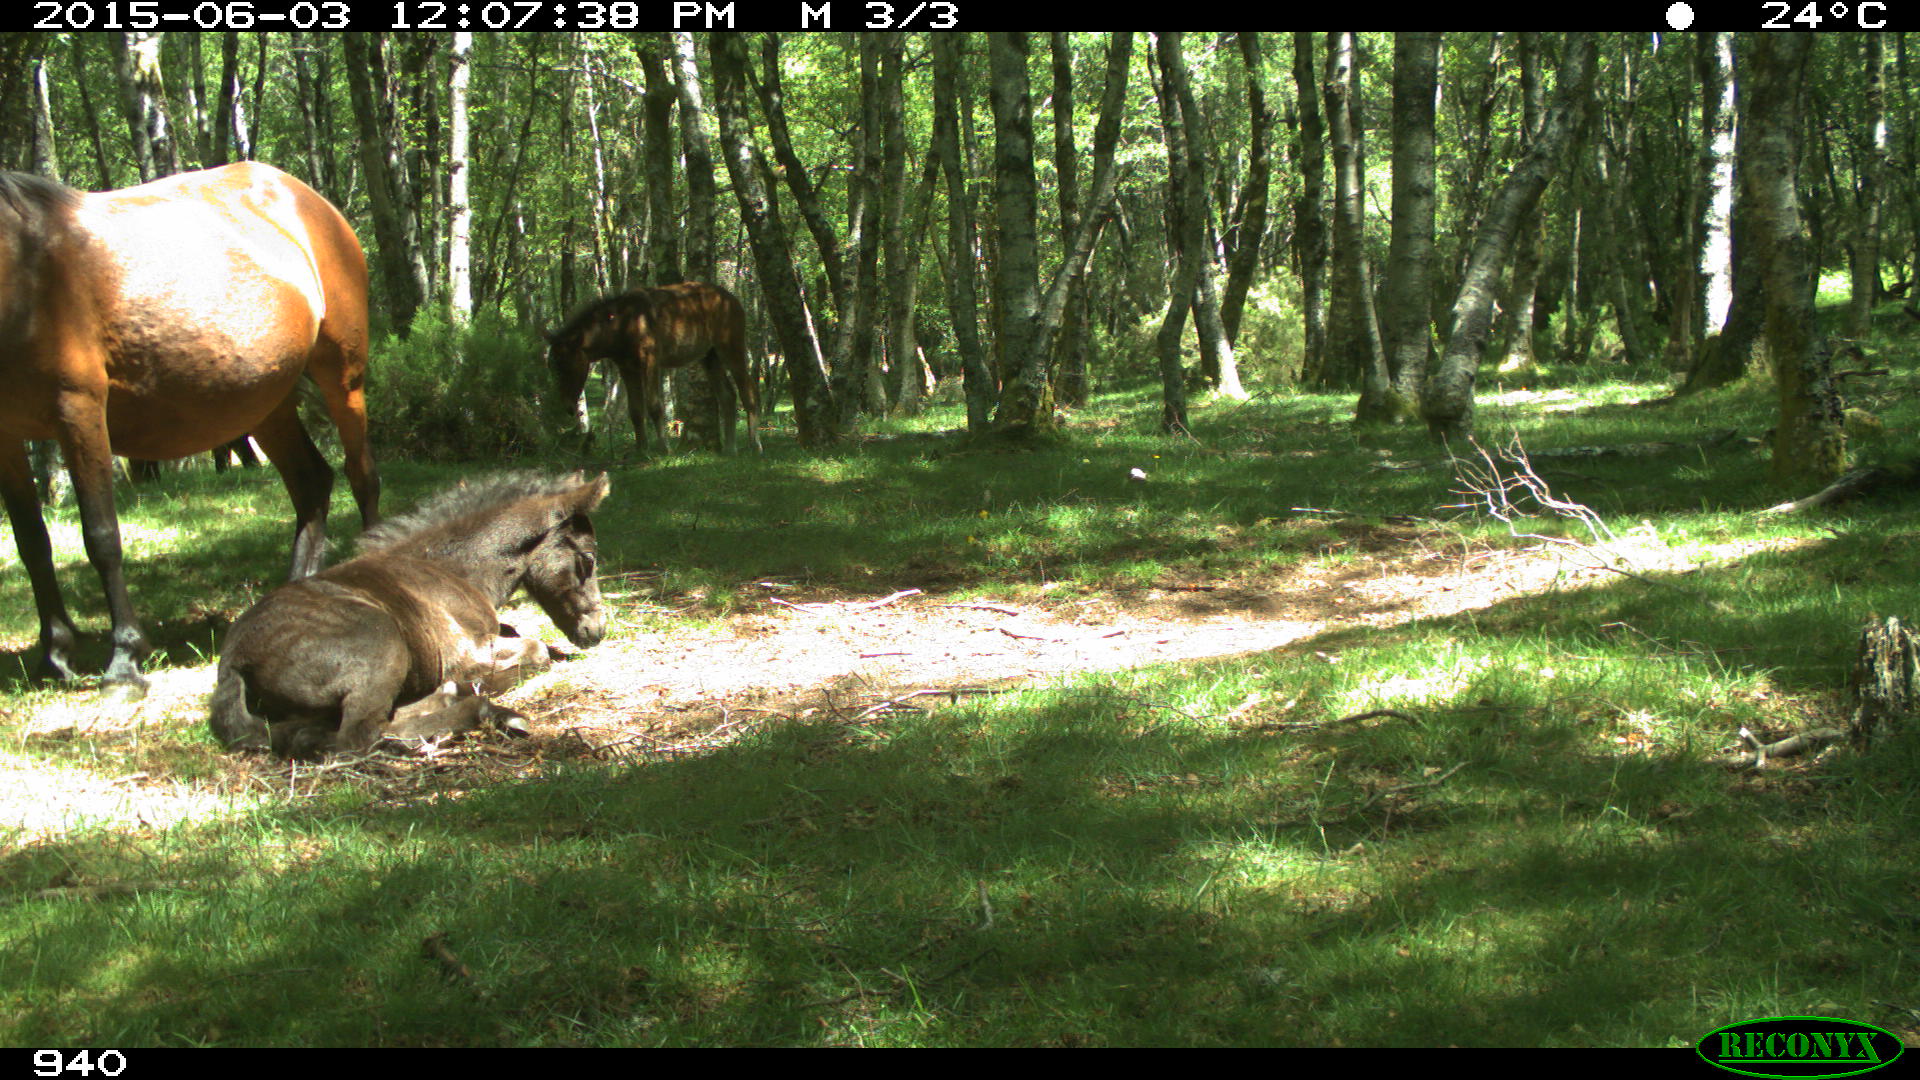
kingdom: Animalia
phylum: Chordata
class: Mammalia
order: Perissodactyla
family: Equidae
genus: Equus
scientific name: Equus caballus
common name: Horse
